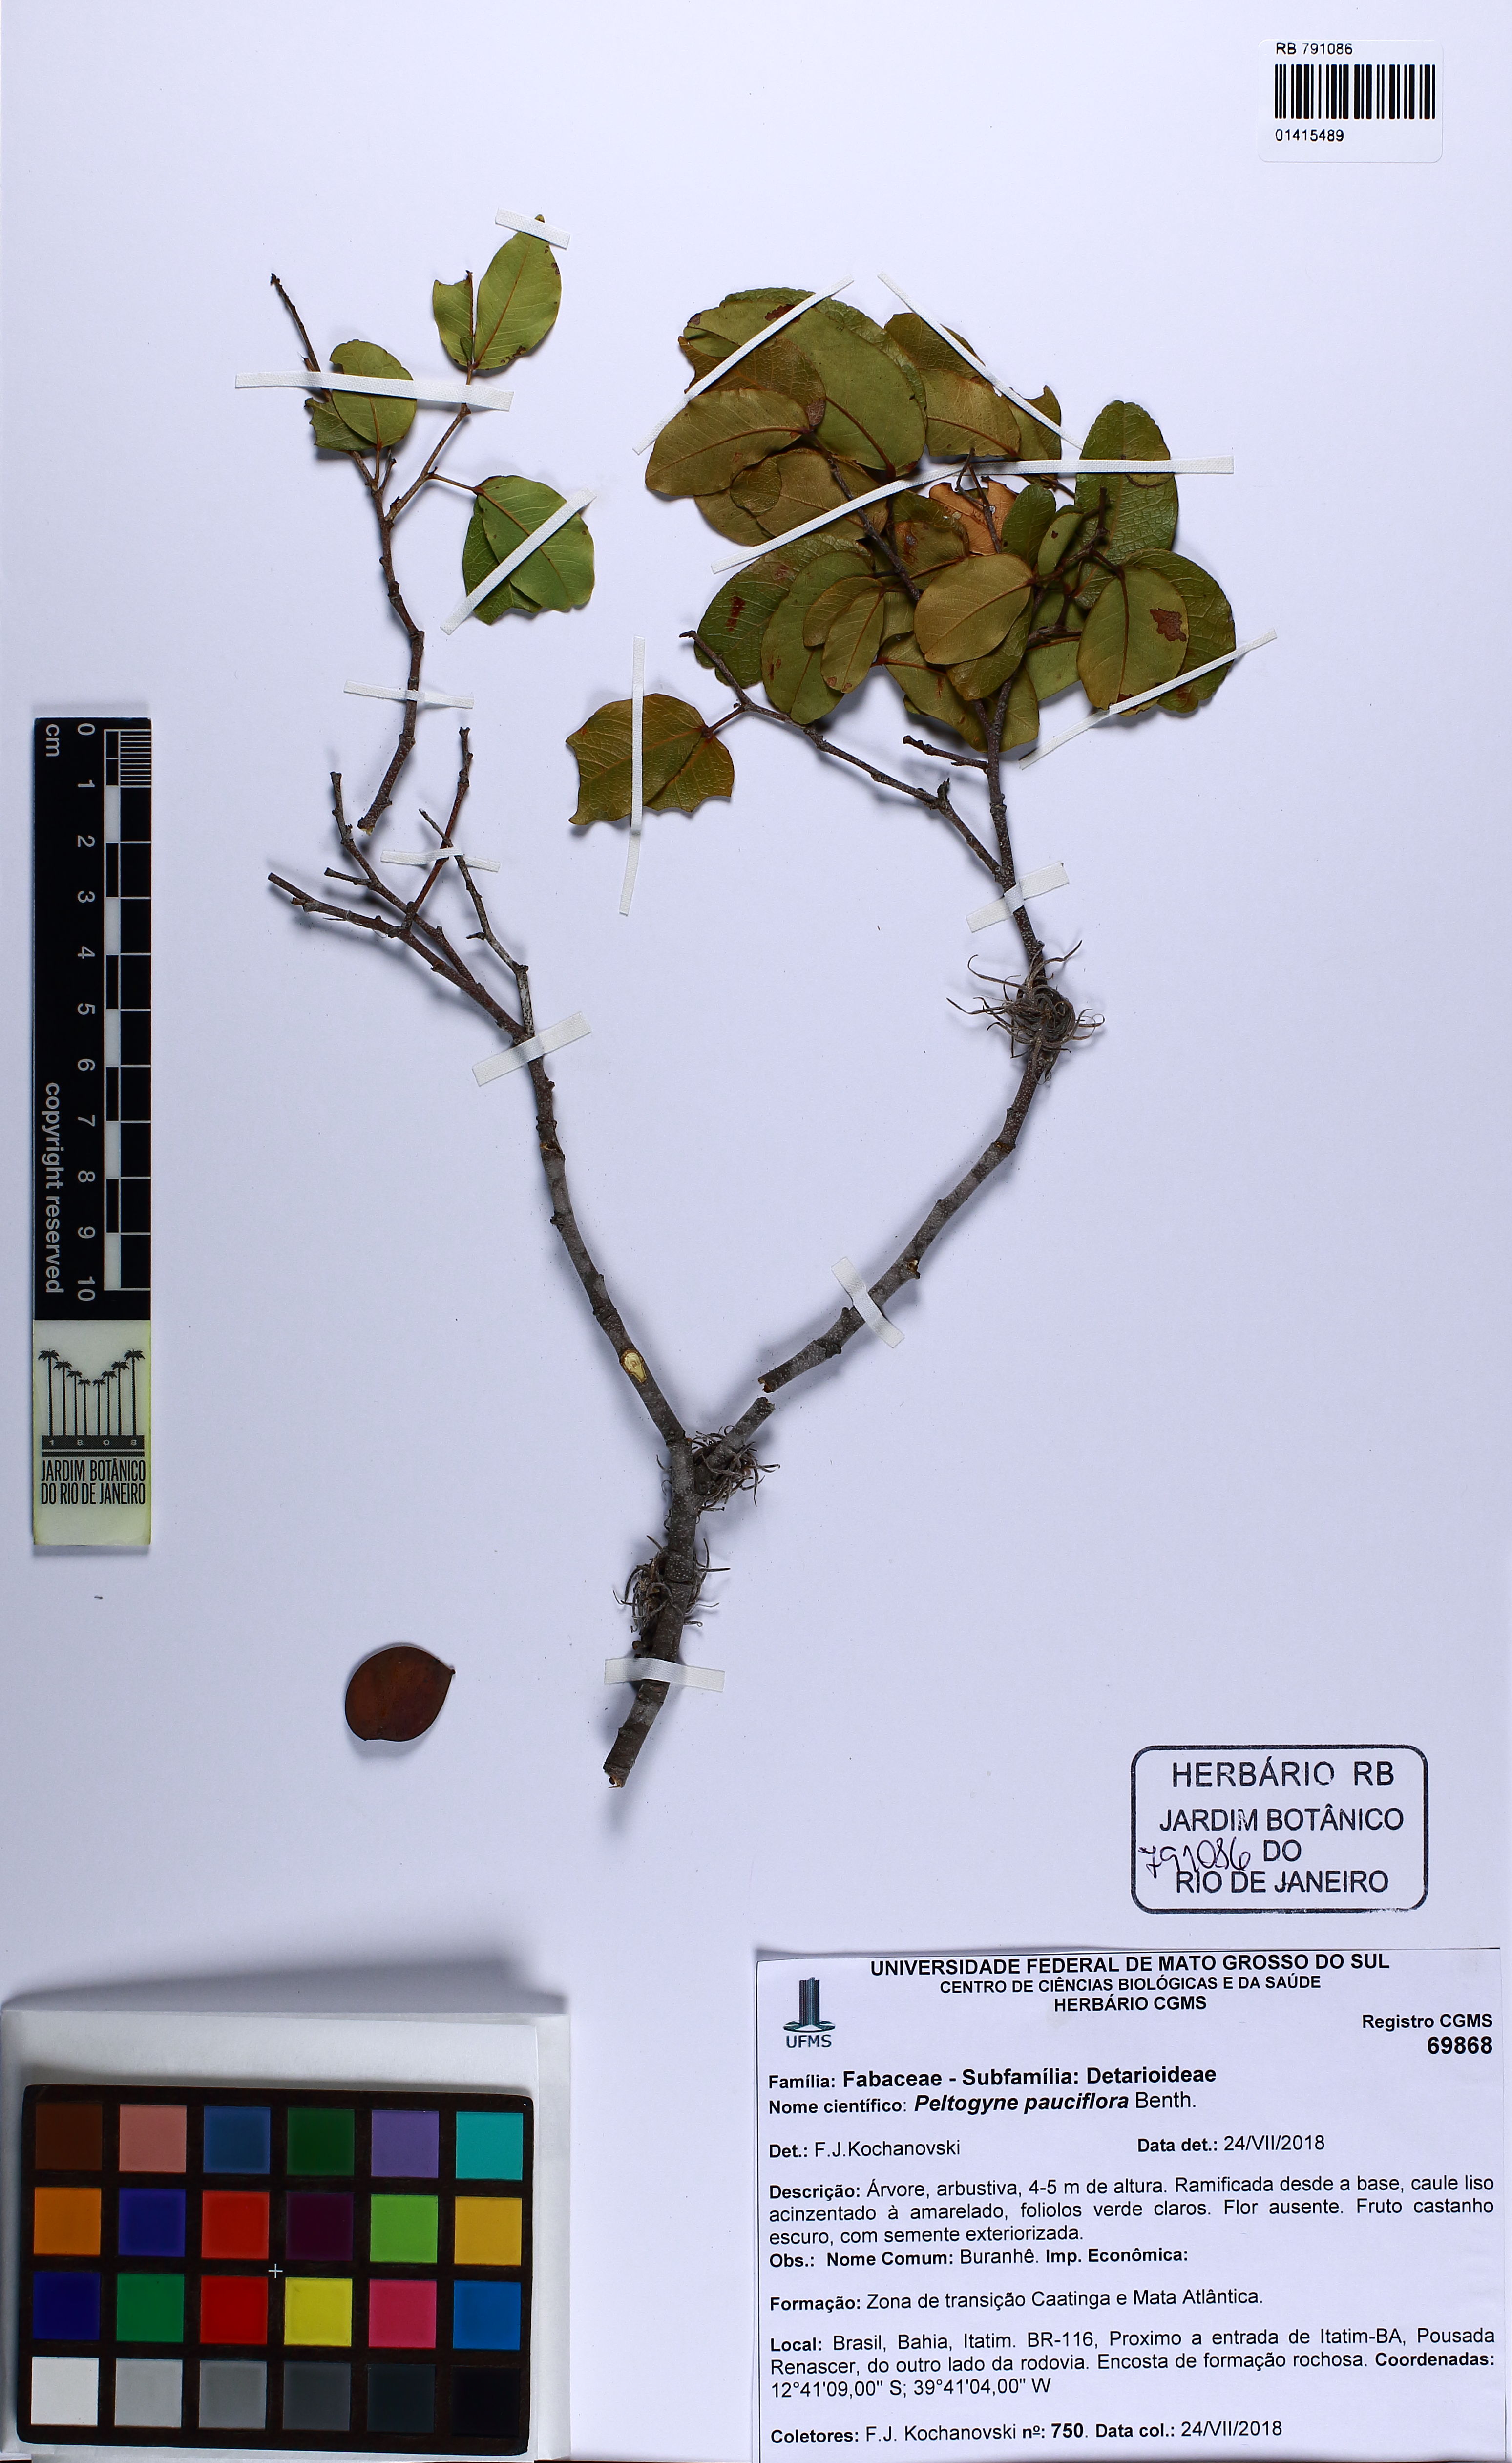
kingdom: Plantae
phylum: Tracheophyta
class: Magnoliopsida
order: Fabales
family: Fabaceae
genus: Peltogyne
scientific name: Peltogyne pauciflora
